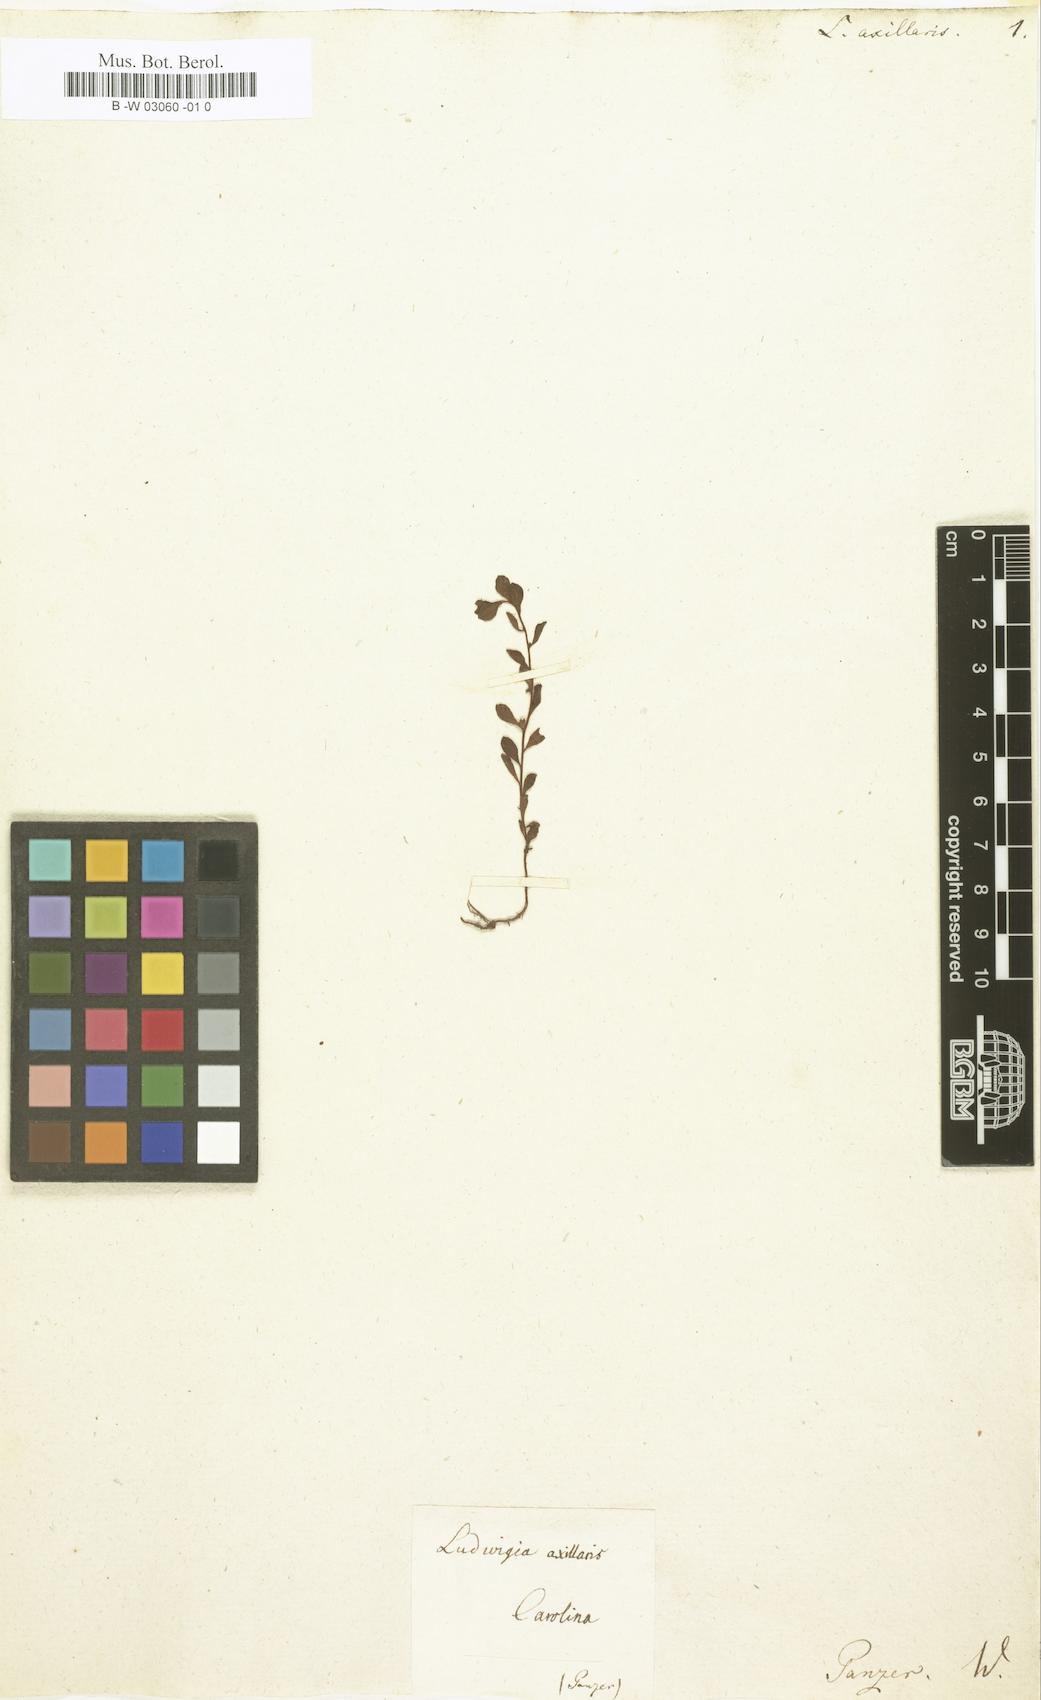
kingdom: Plantae
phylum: Tracheophyta
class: Magnoliopsida
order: Myrtales
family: Onagraceae
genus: Ludwigia
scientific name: Ludwigia
